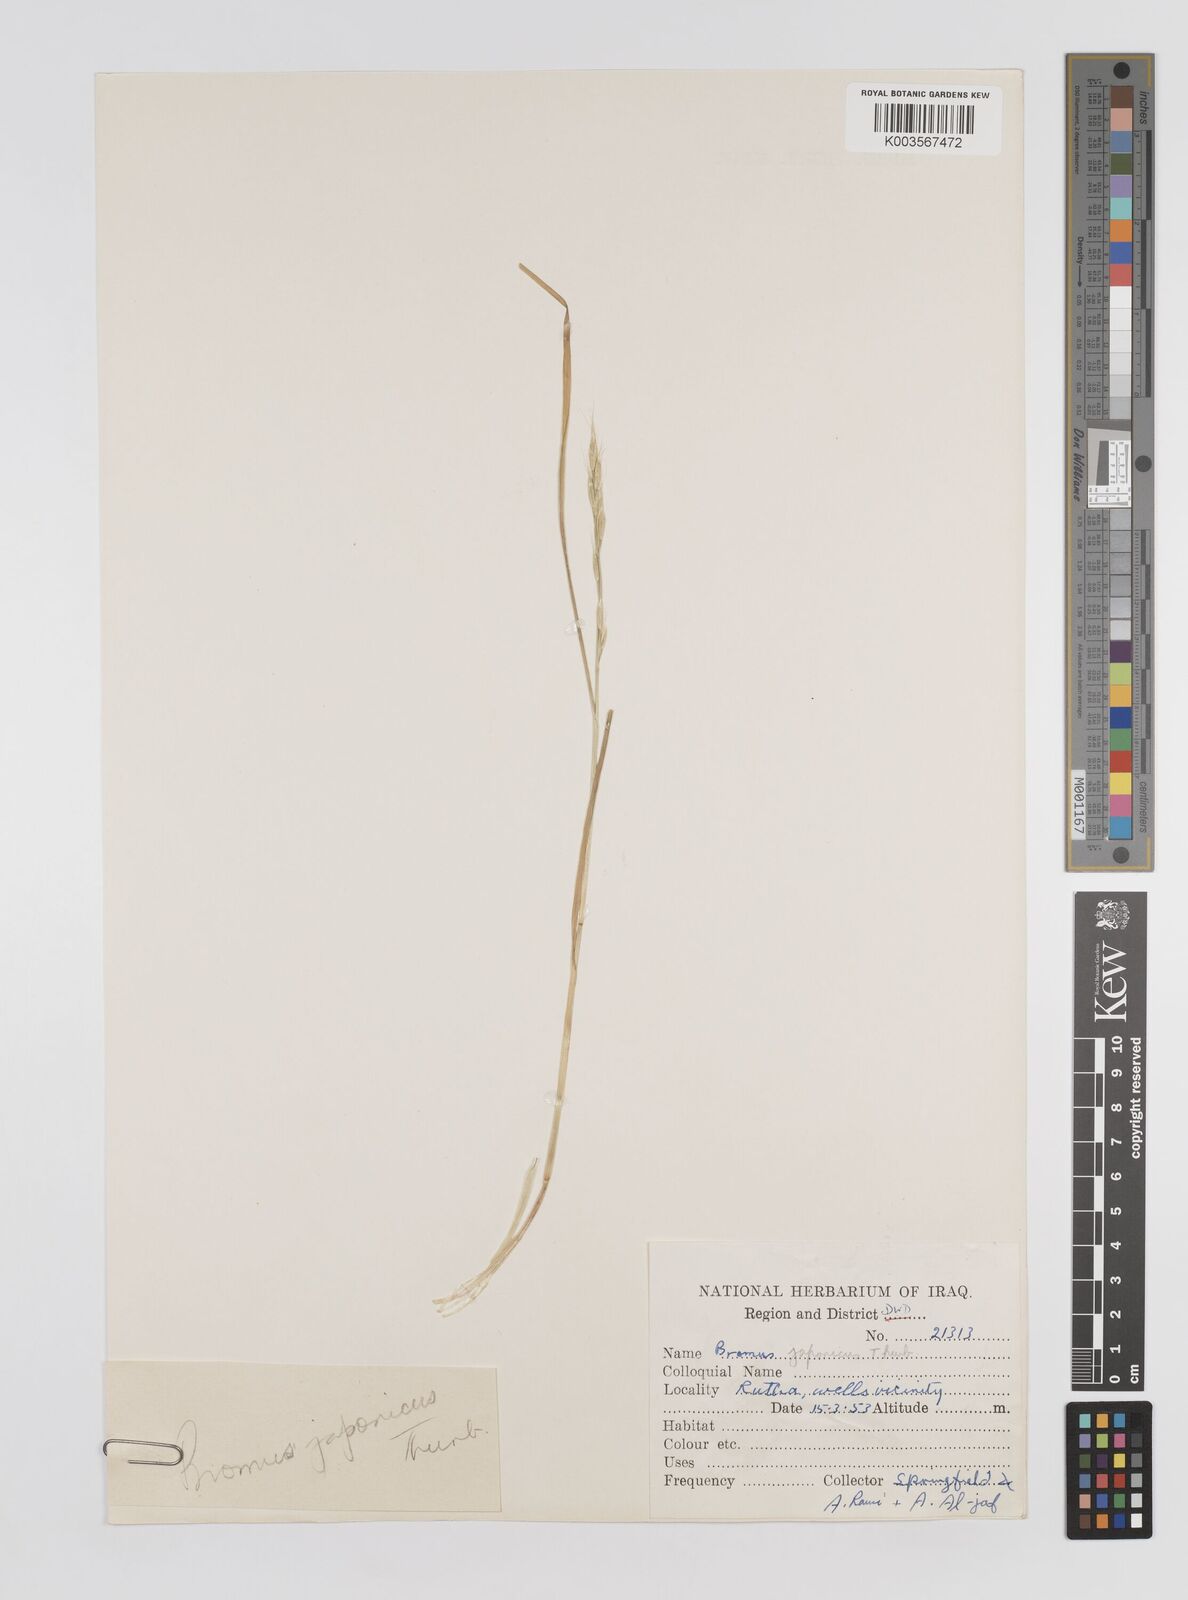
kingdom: Plantae
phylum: Tracheophyta
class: Liliopsida
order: Poales
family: Poaceae
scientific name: Poaceae
